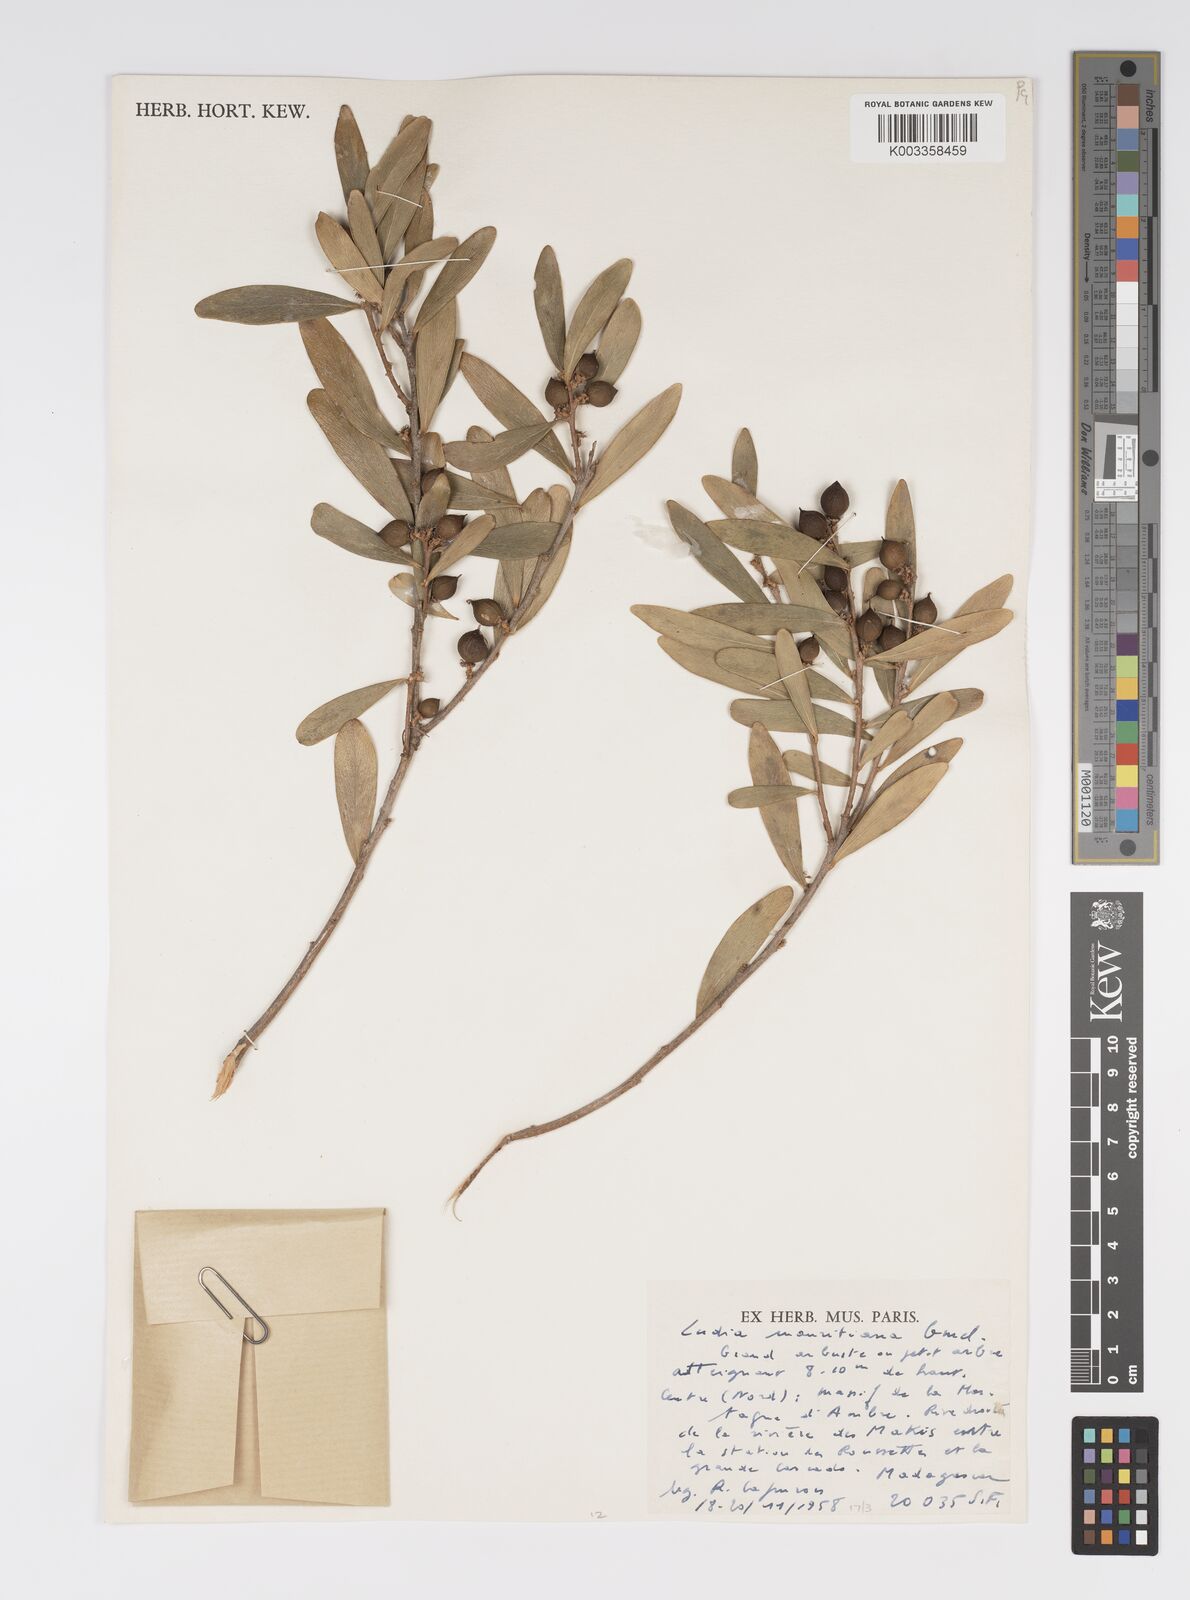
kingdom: Plantae
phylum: Tracheophyta
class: Magnoliopsida
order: Malpighiales
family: Salicaceae
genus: Ludia
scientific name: Ludia mauritiana
